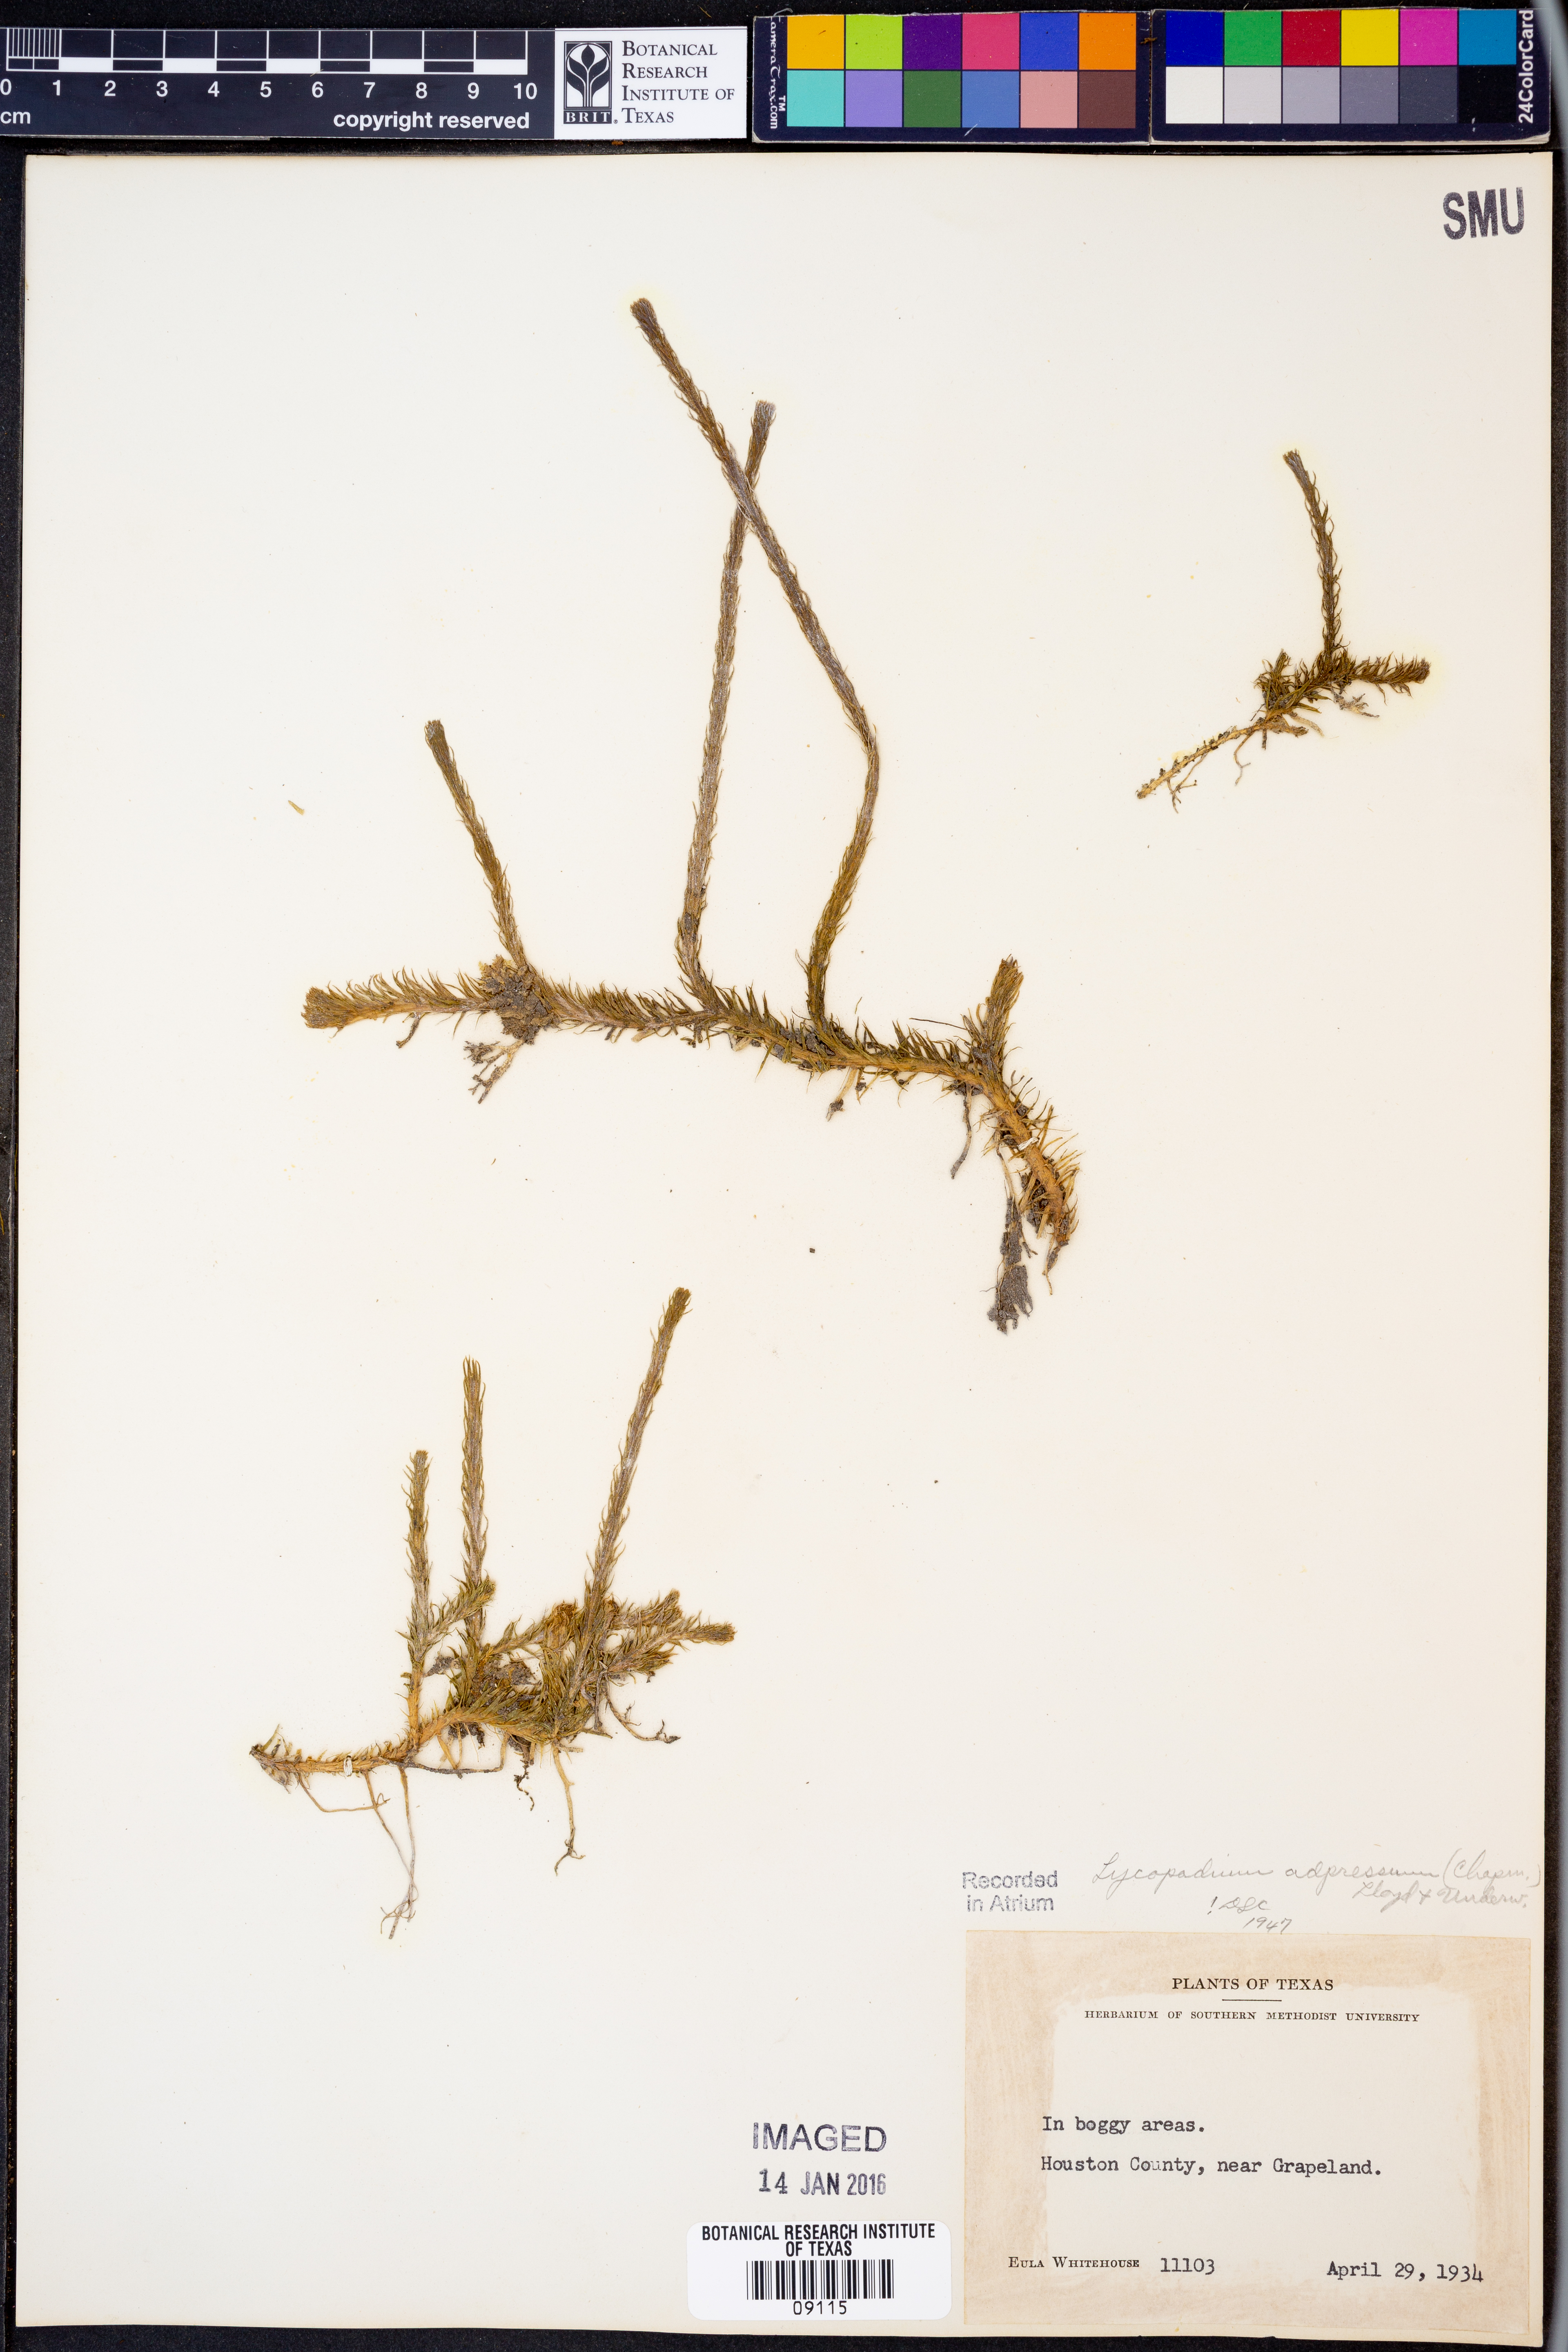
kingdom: Plantae
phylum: Tracheophyta
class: Lycopodiopsida
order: Lycopodiales
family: Lycopodiaceae
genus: Lycopodiella
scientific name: Lycopodiella appressa
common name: Appressed bog clubmoss
